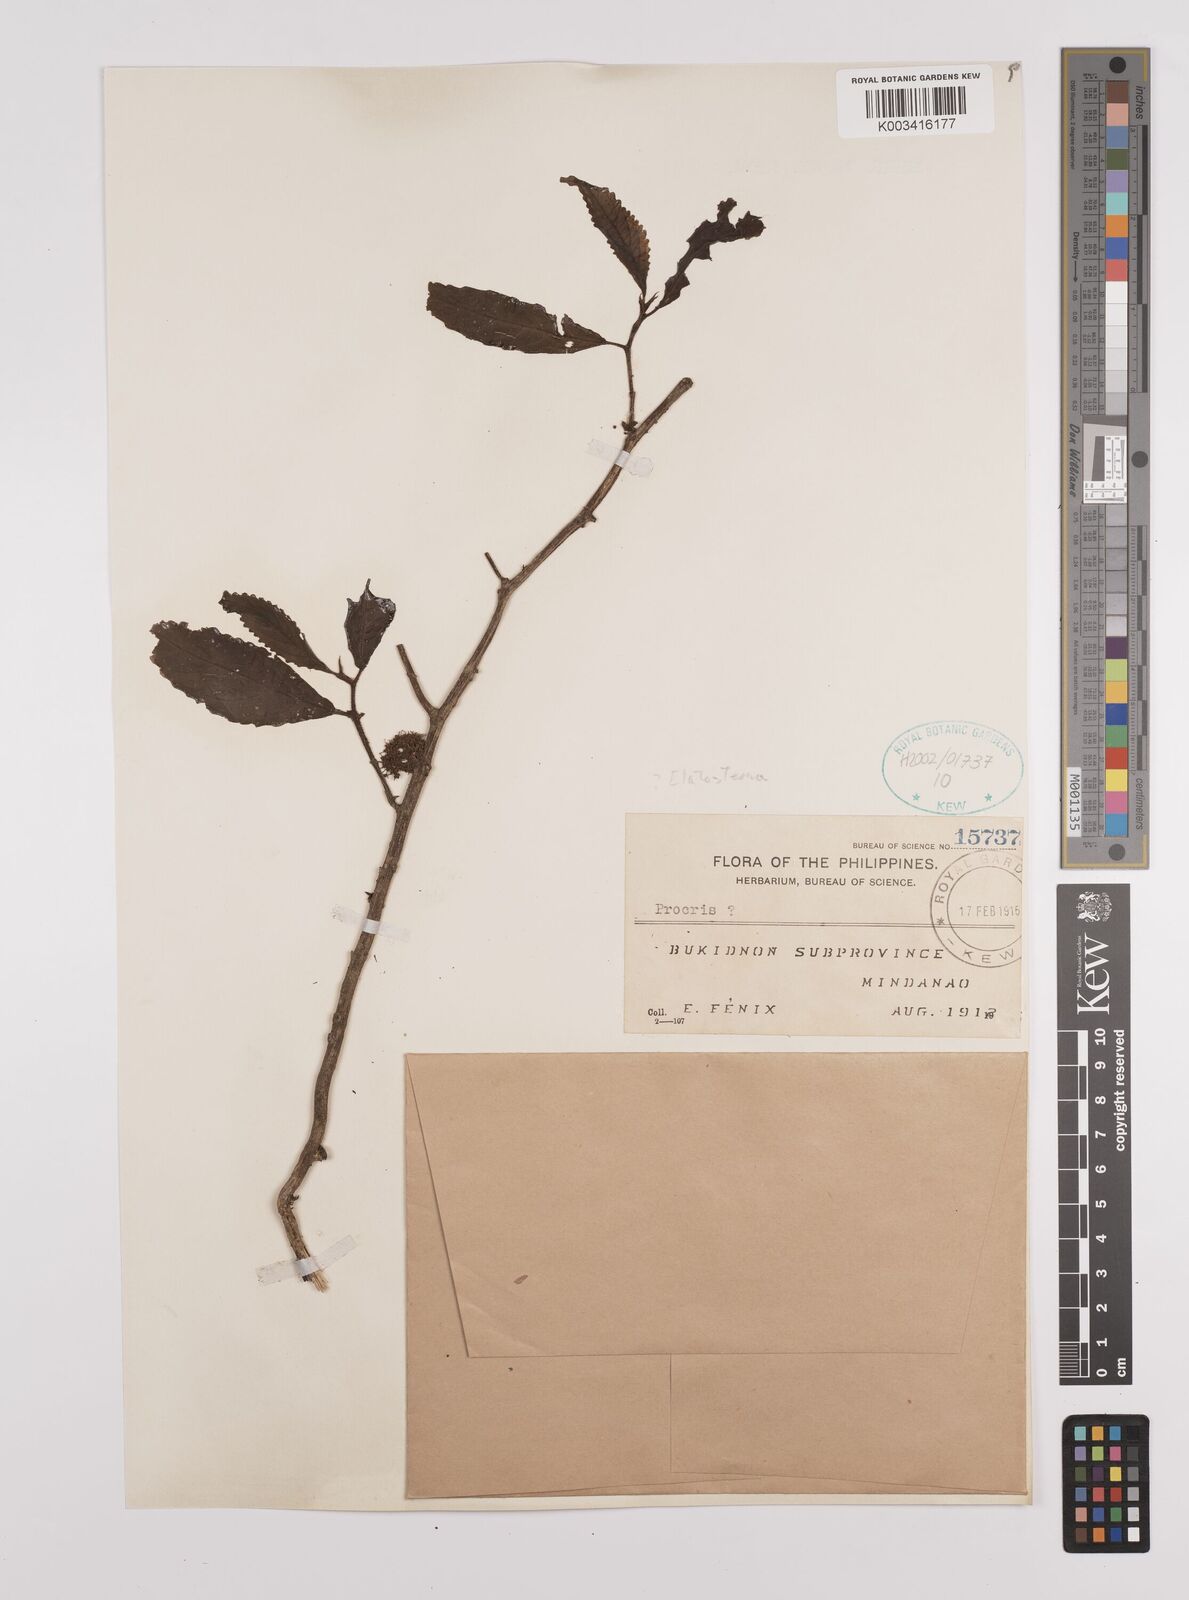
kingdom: Plantae
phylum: Tracheophyta
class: Magnoliopsida
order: Rosales
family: Urticaceae
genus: Elatostema
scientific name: Elatostema
